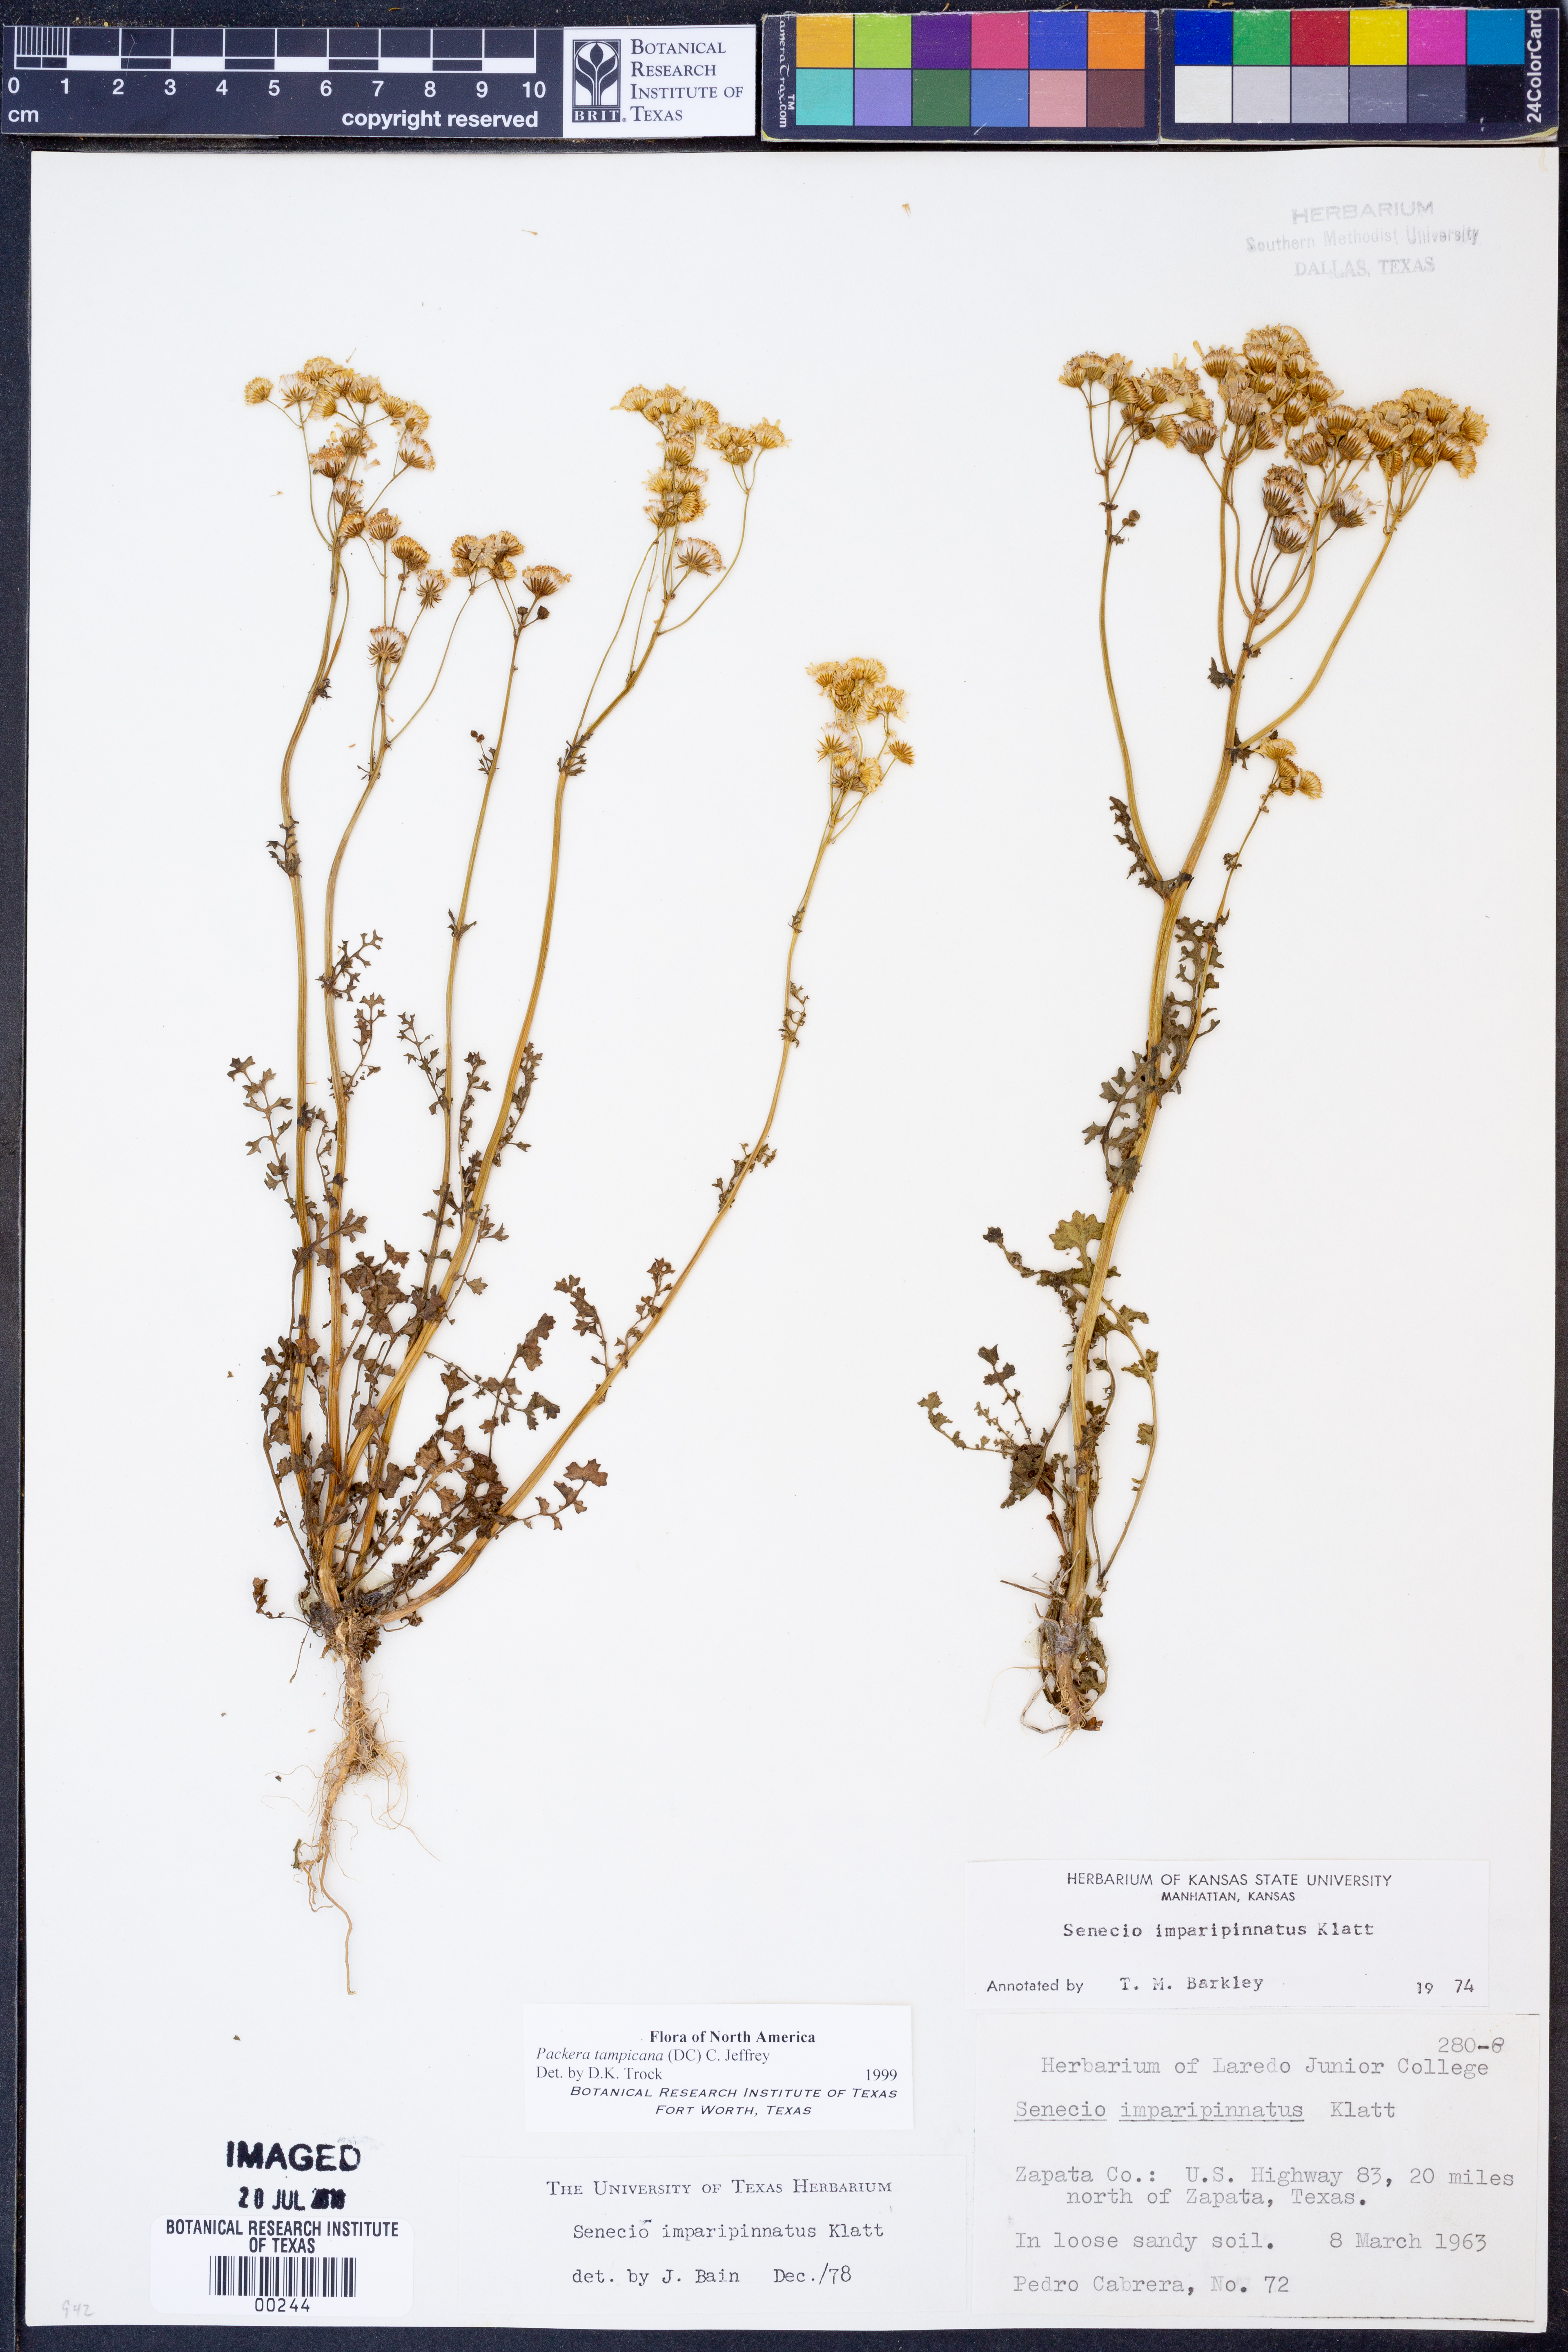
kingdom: Plantae
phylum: Tracheophyta
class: Magnoliopsida
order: Asterales
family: Asteraceae
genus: Packera
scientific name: Packera tampicana
